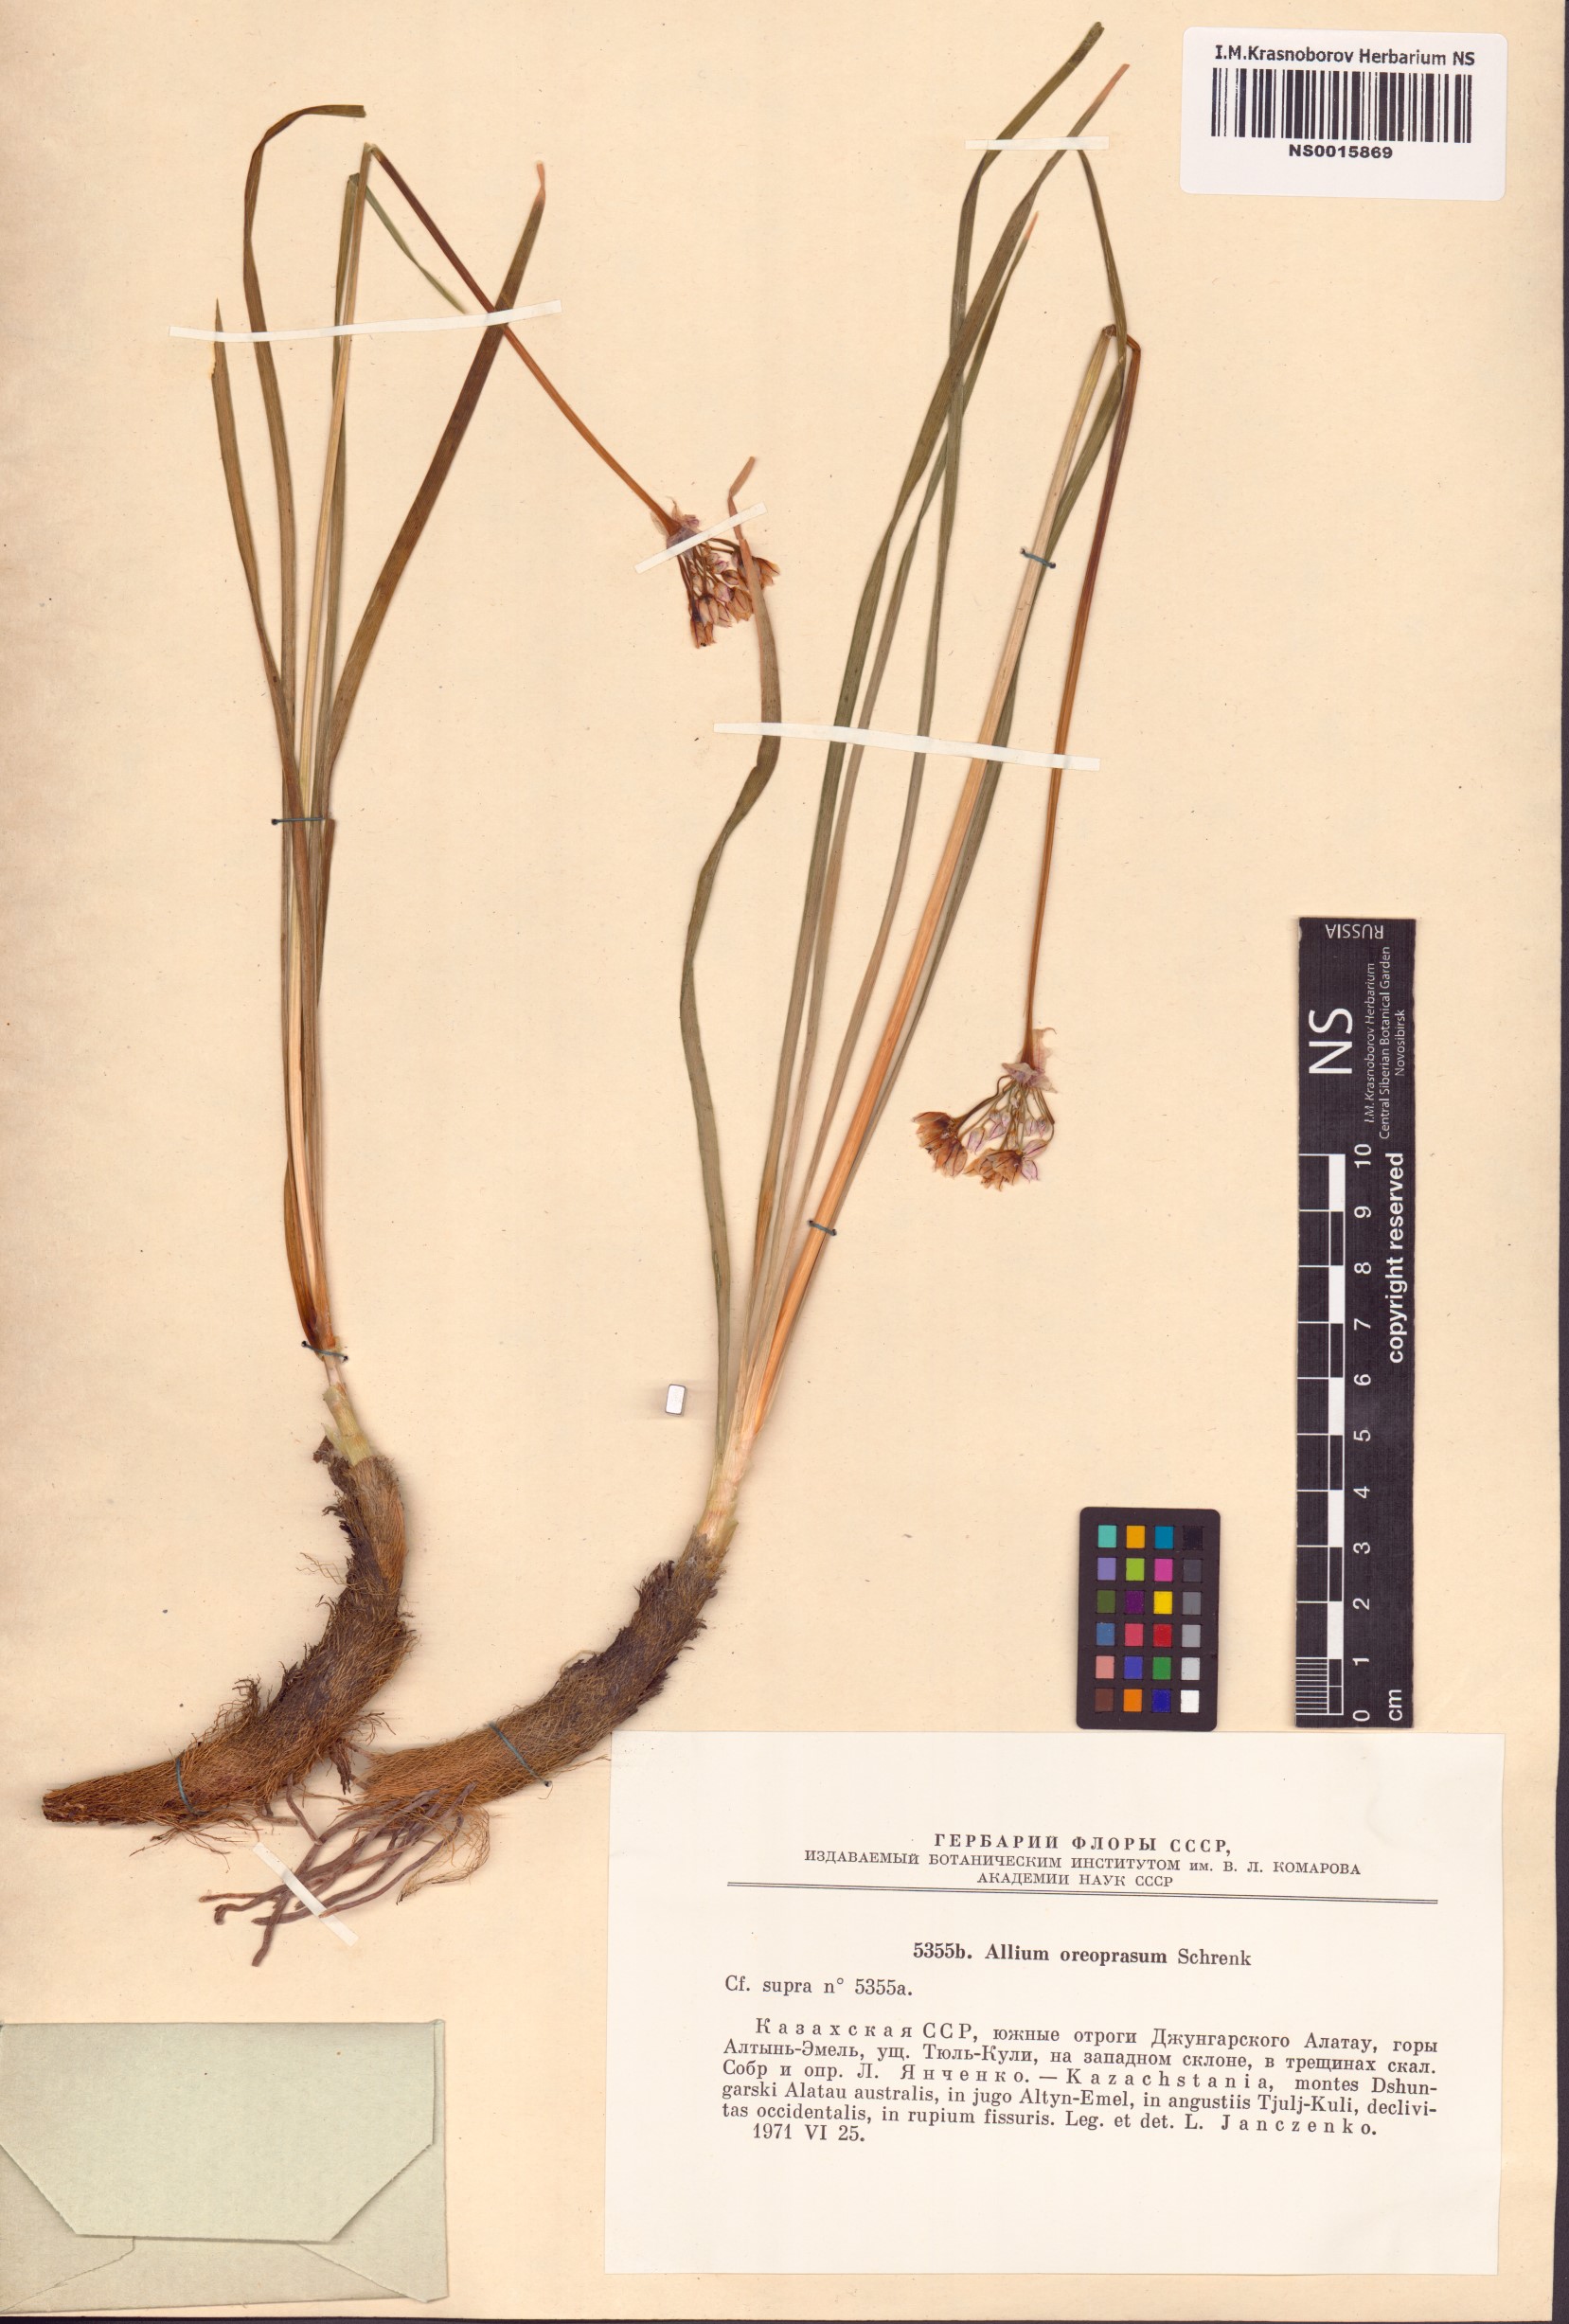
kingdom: Plantae
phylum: Tracheophyta
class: Liliopsida
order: Asparagales
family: Amaryllidaceae
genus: Allium
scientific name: Allium oreoprasum
